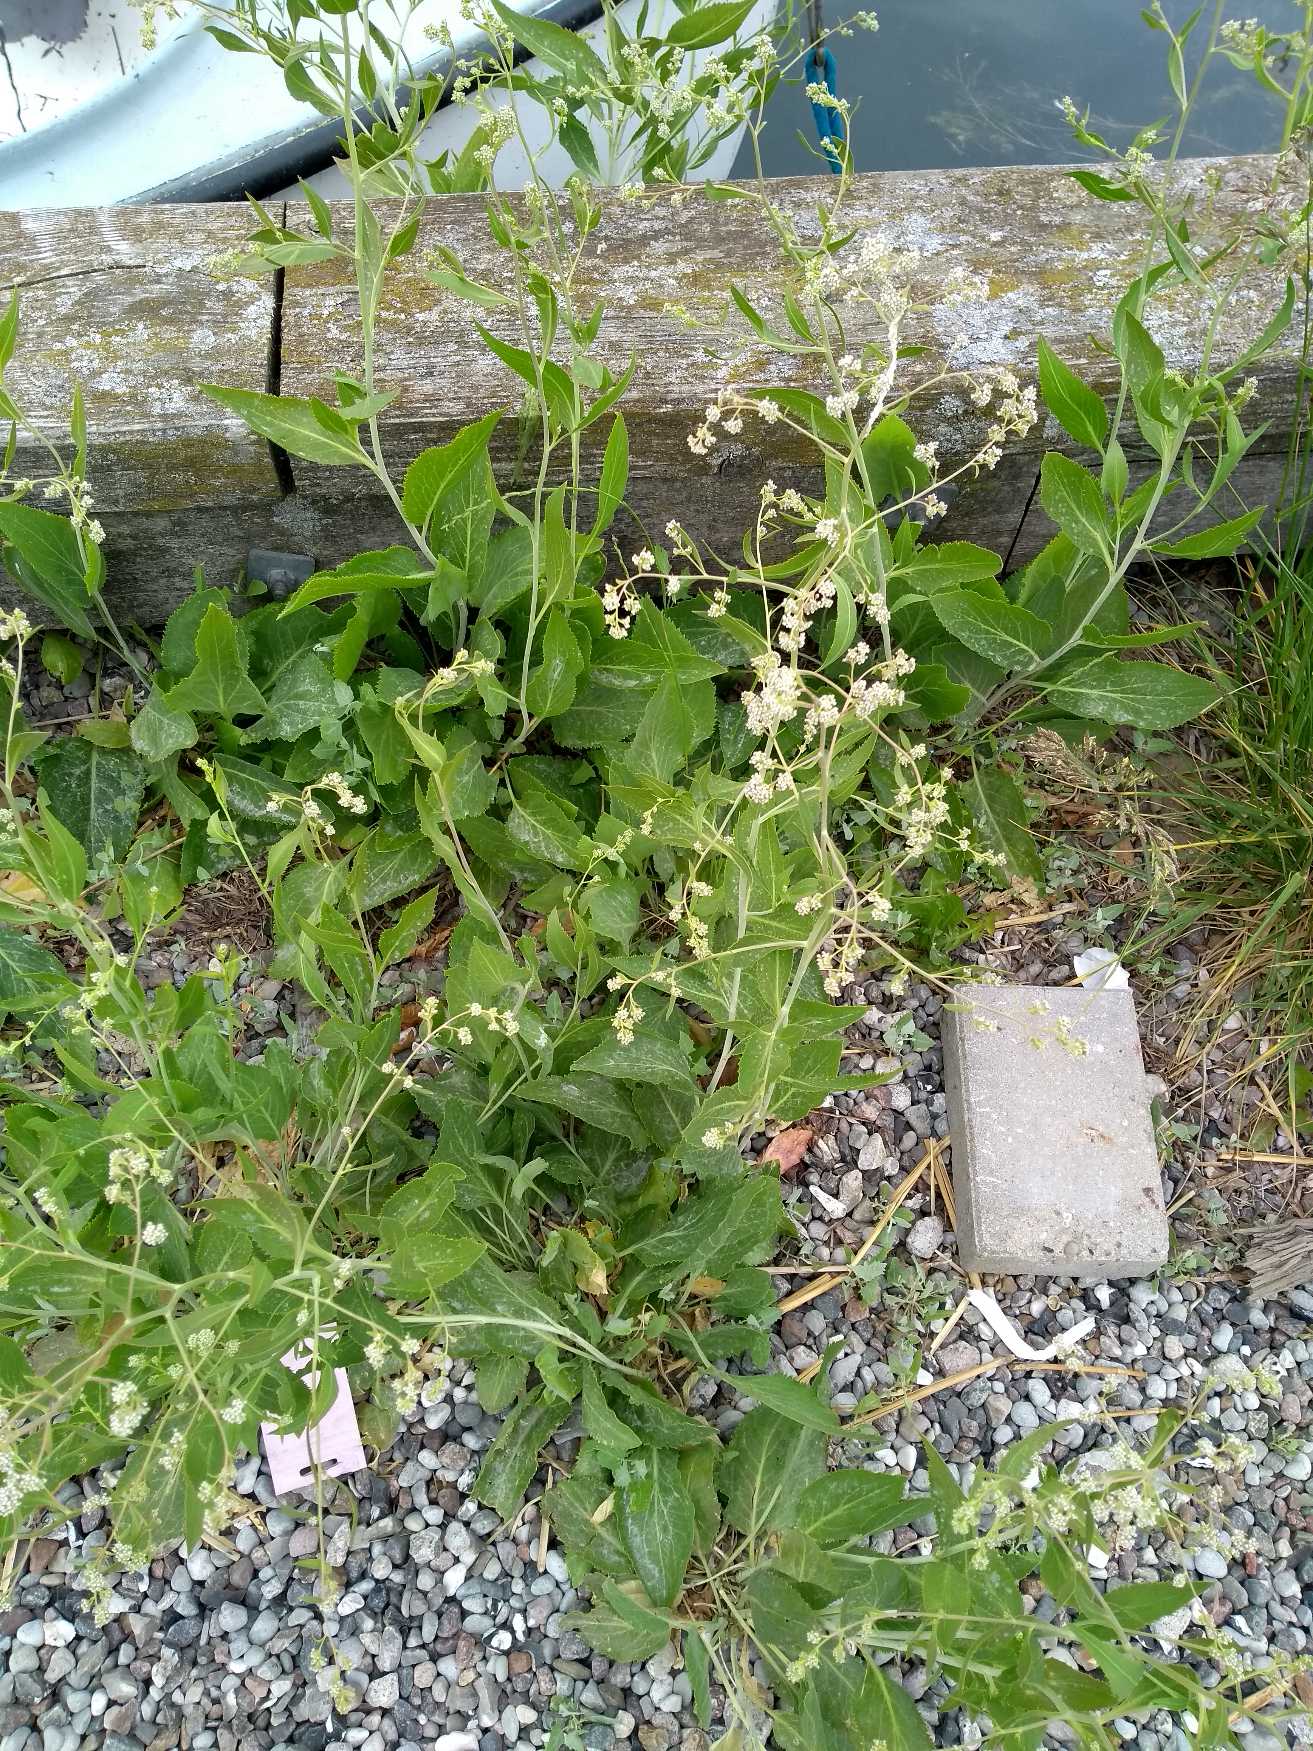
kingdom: Plantae
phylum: Tracheophyta
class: Magnoliopsida
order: Brassicales
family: Brassicaceae
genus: Lepidium
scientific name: Lepidium latifolium
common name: Strand-karse
